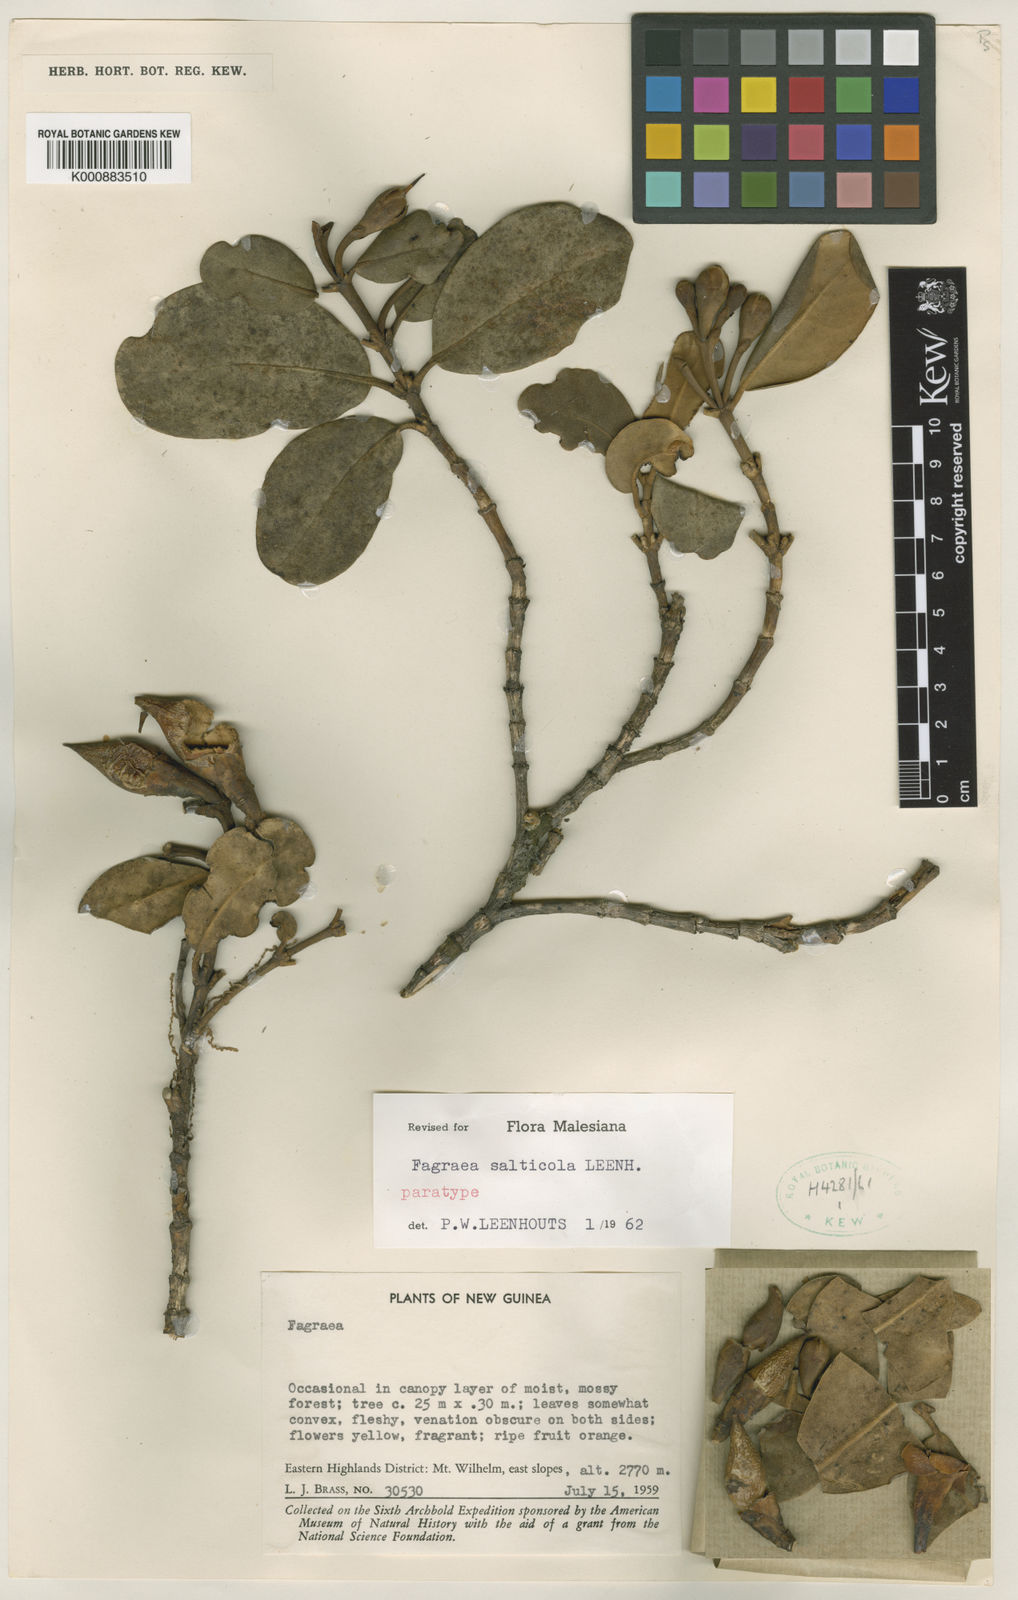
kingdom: Plantae
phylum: Tracheophyta
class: Magnoliopsida
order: Gentianales
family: Gentianaceae
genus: Fagraea
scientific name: Fagraea salticola
